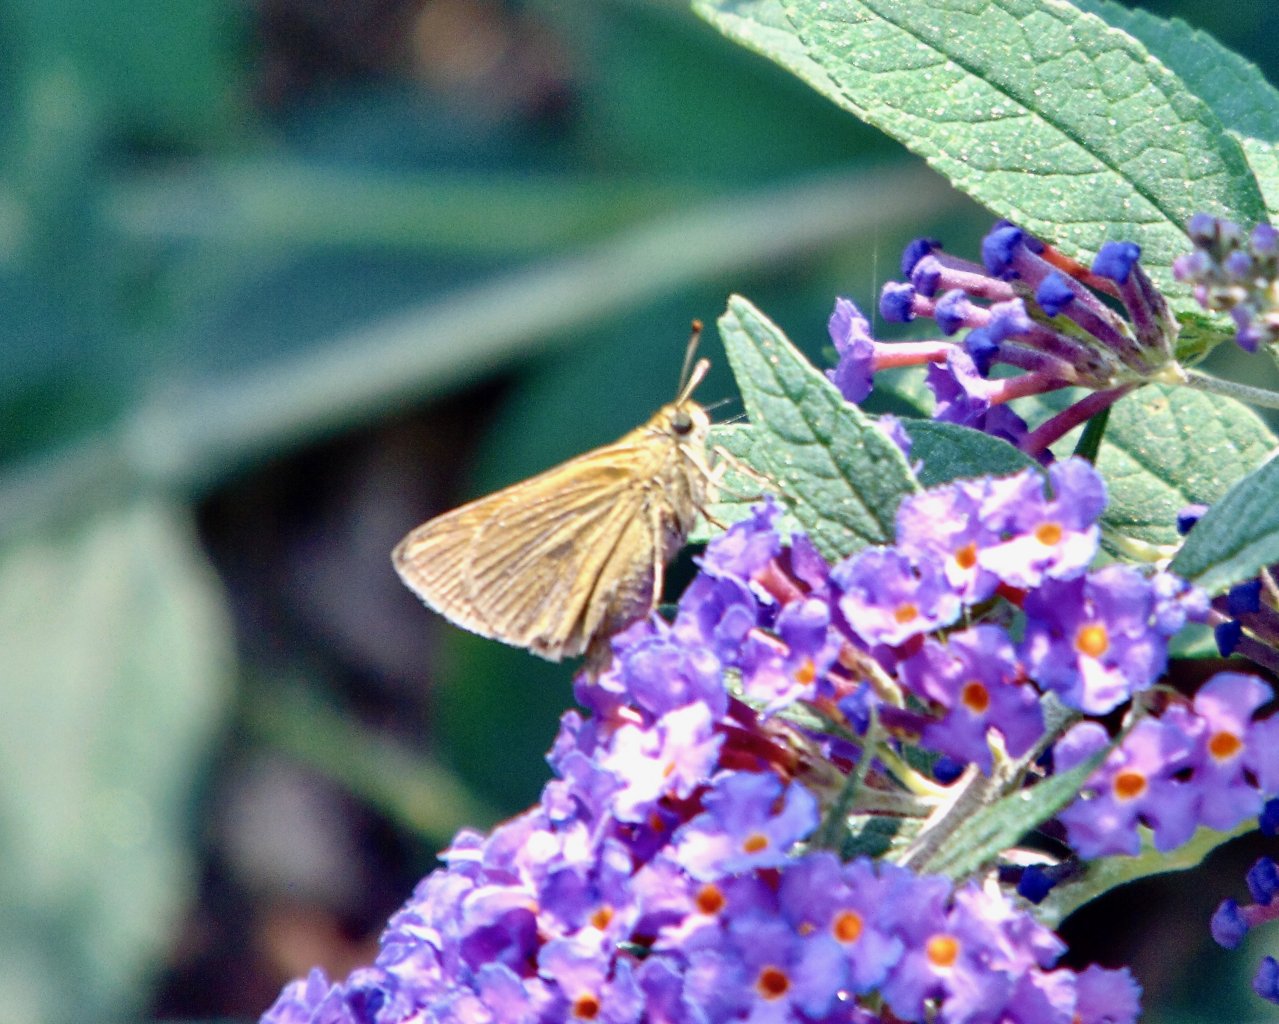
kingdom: Animalia
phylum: Arthropoda
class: Insecta
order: Lepidoptera
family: Hesperiidae
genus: Polites
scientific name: Polites themistocles
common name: Tawny-edged Skipper
